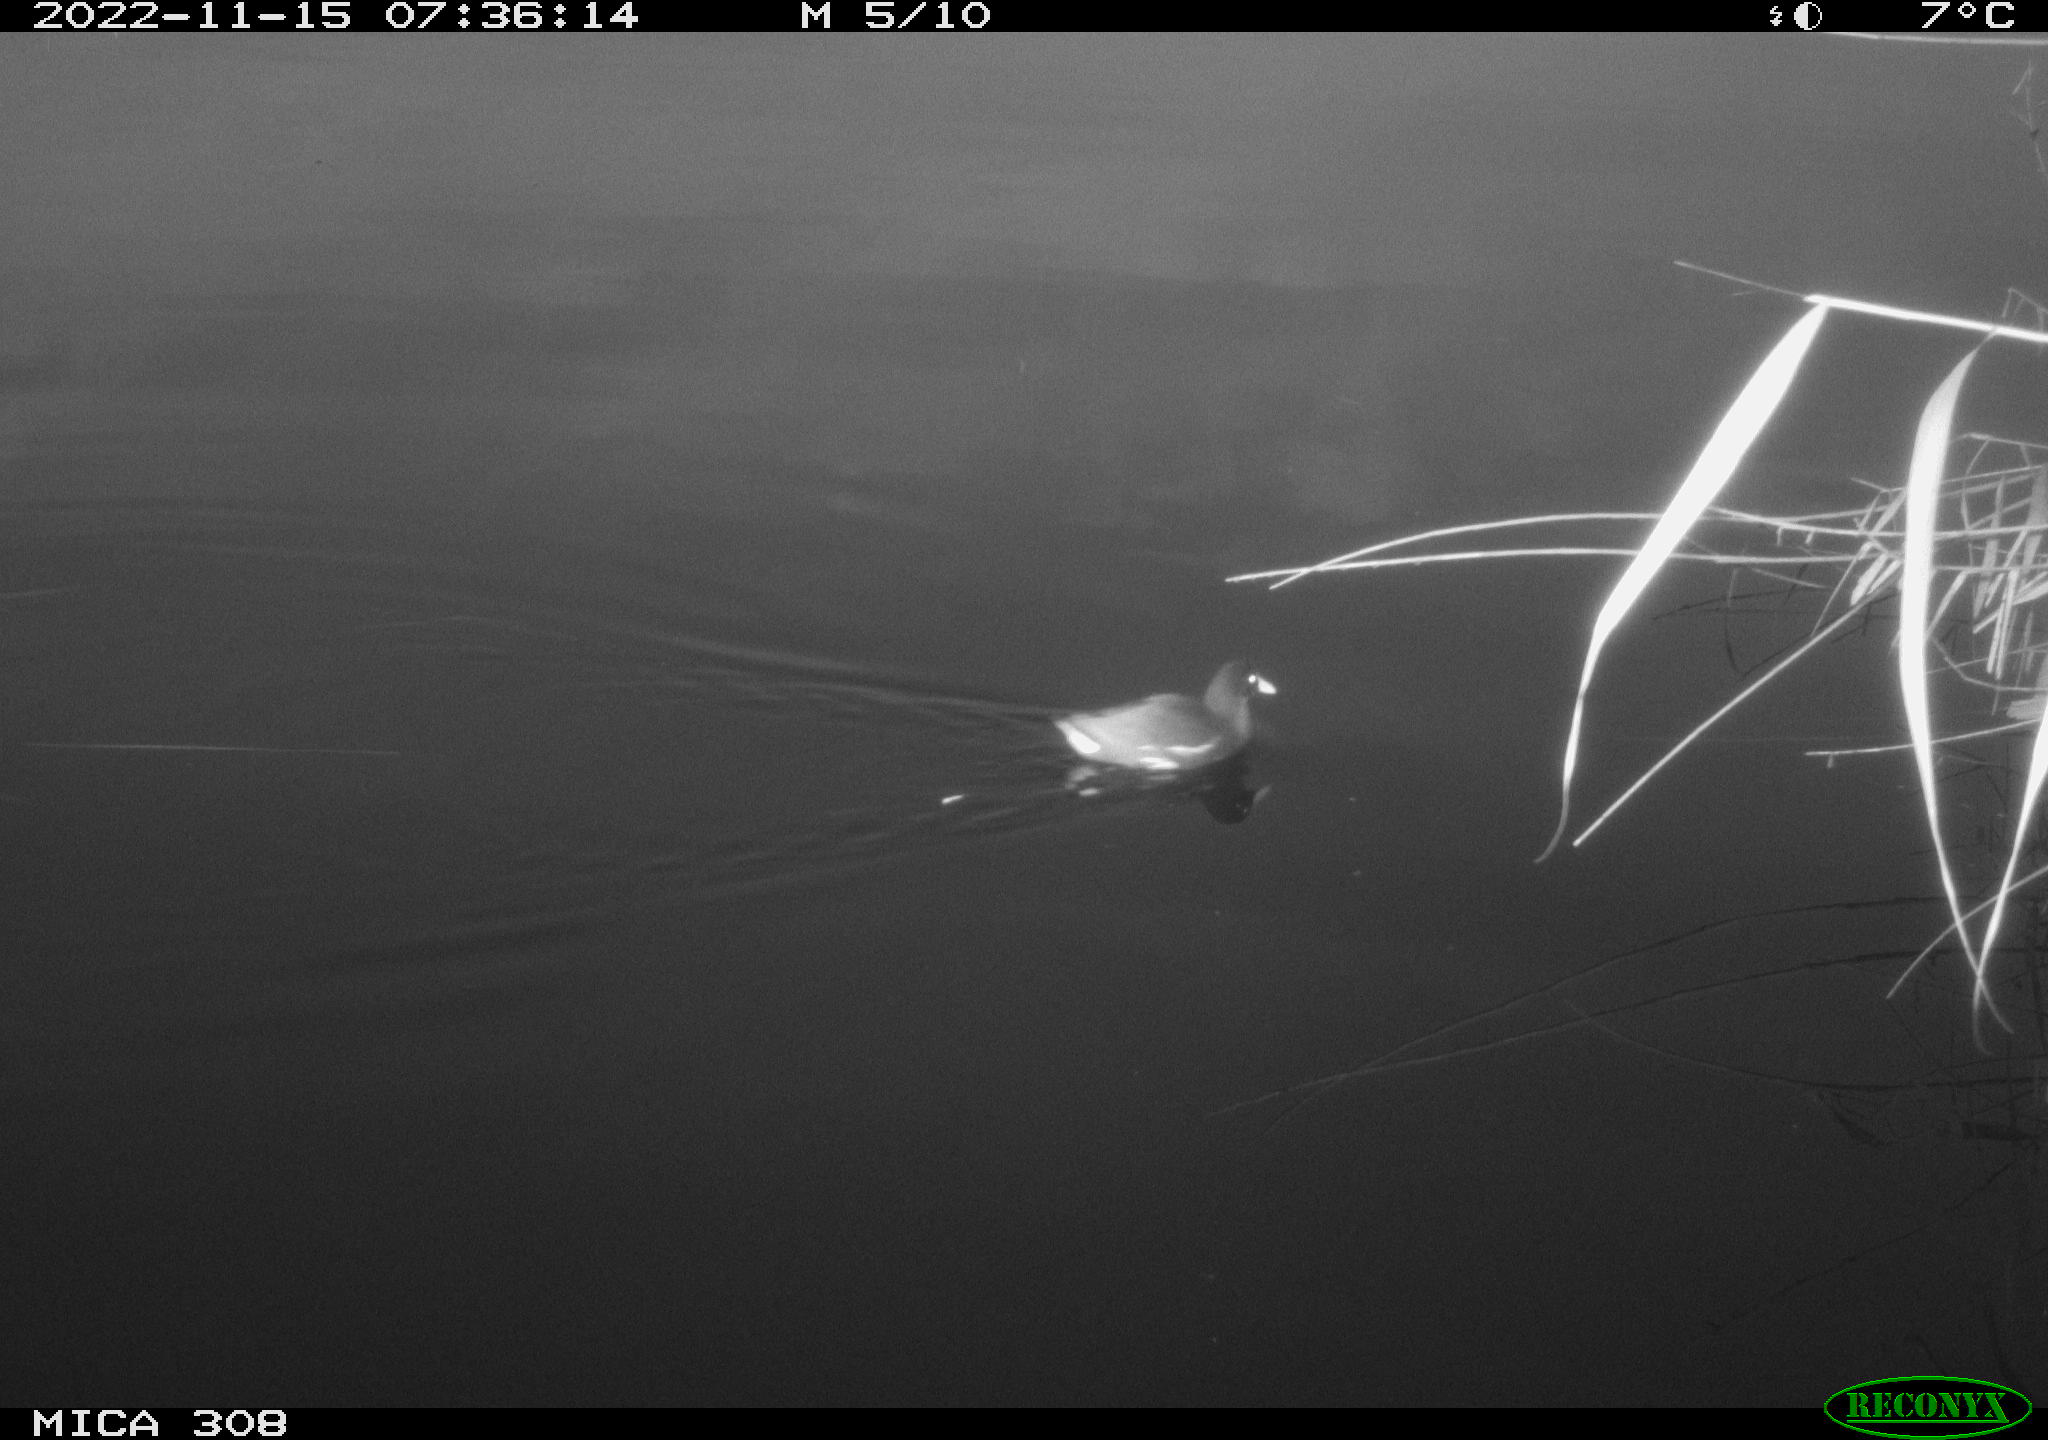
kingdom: Animalia
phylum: Chordata
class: Aves
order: Gruiformes
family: Rallidae
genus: Gallinula
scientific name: Gallinula chloropus
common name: Common moorhen
